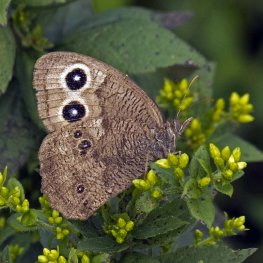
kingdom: Animalia
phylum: Arthropoda
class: Insecta
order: Lepidoptera
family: Nymphalidae
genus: Cercyonis
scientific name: Cercyonis pegala
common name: Common Wood-Nymph
